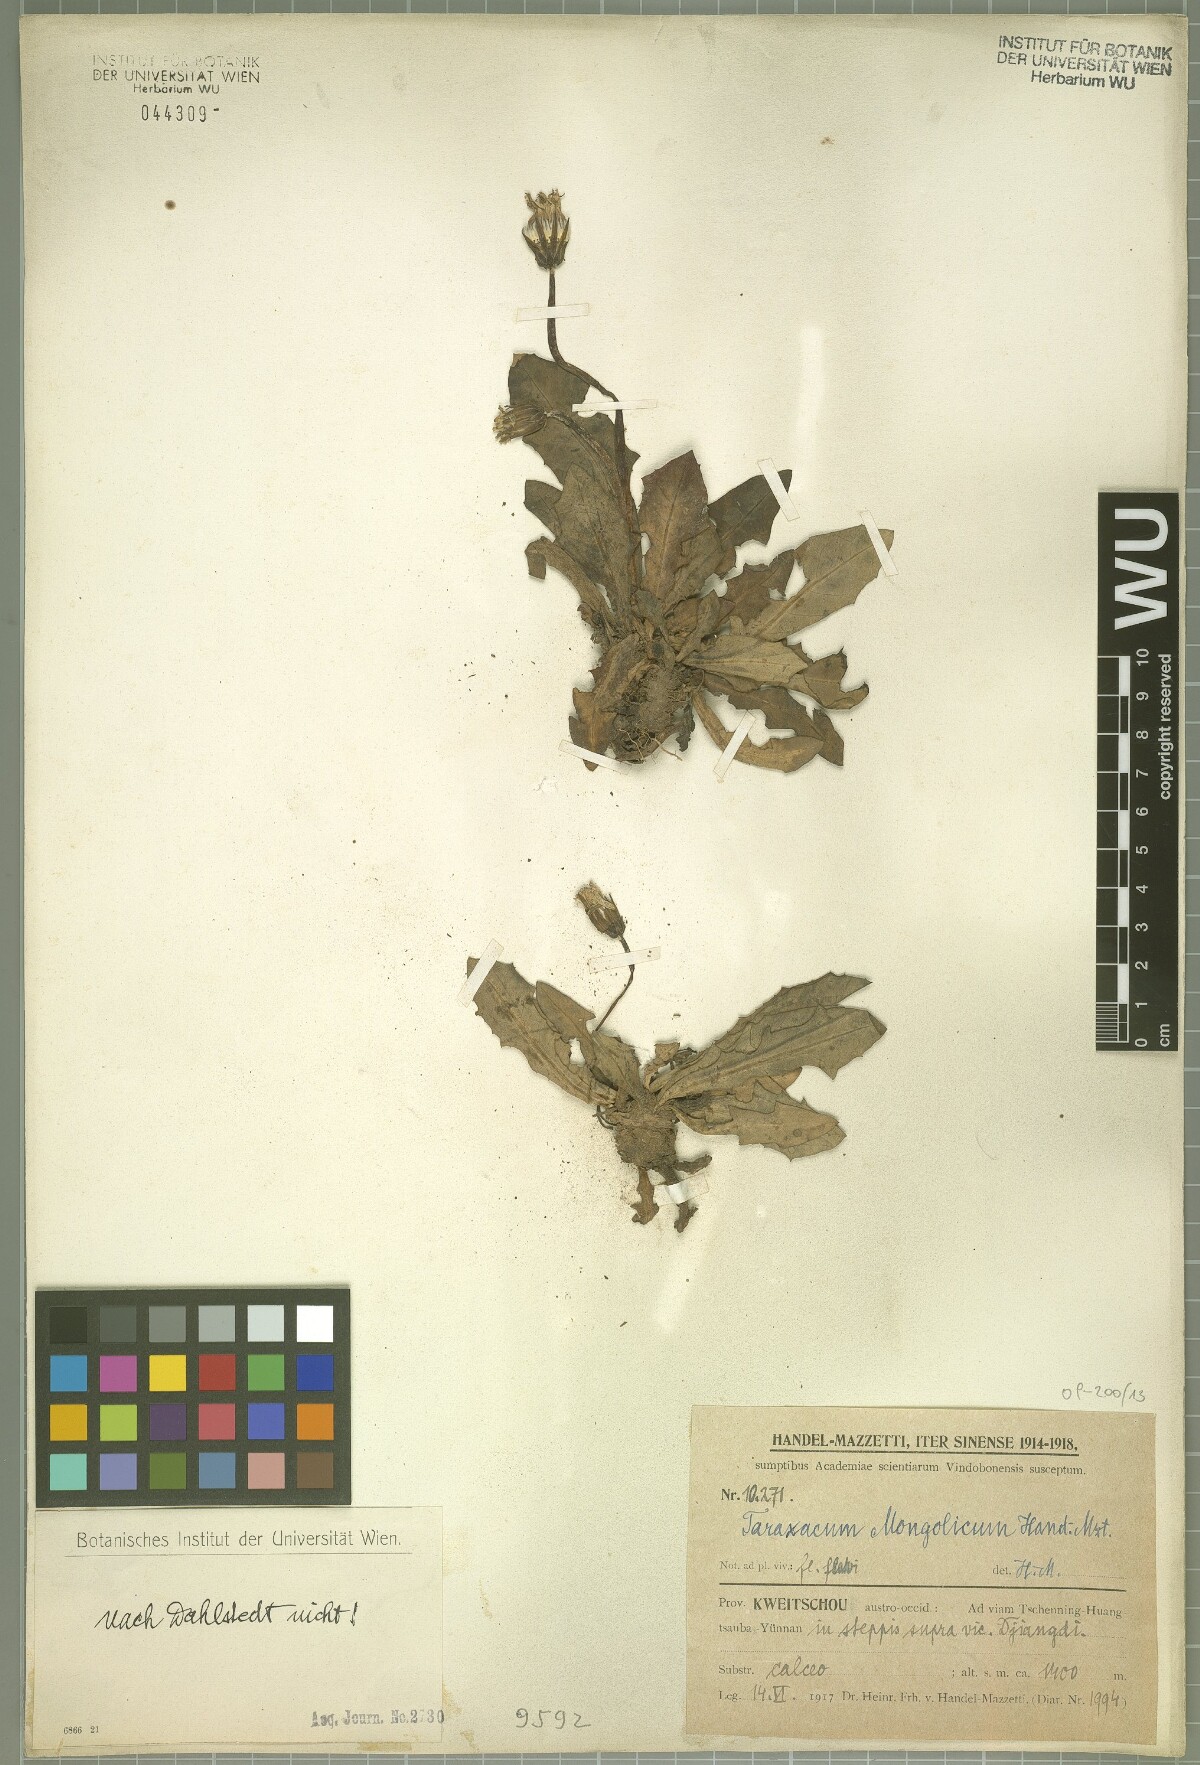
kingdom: Plantae
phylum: Tracheophyta
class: Magnoliopsida
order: Asterales
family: Asteraceae
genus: Taraxacum
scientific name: Taraxacum mongolicum
